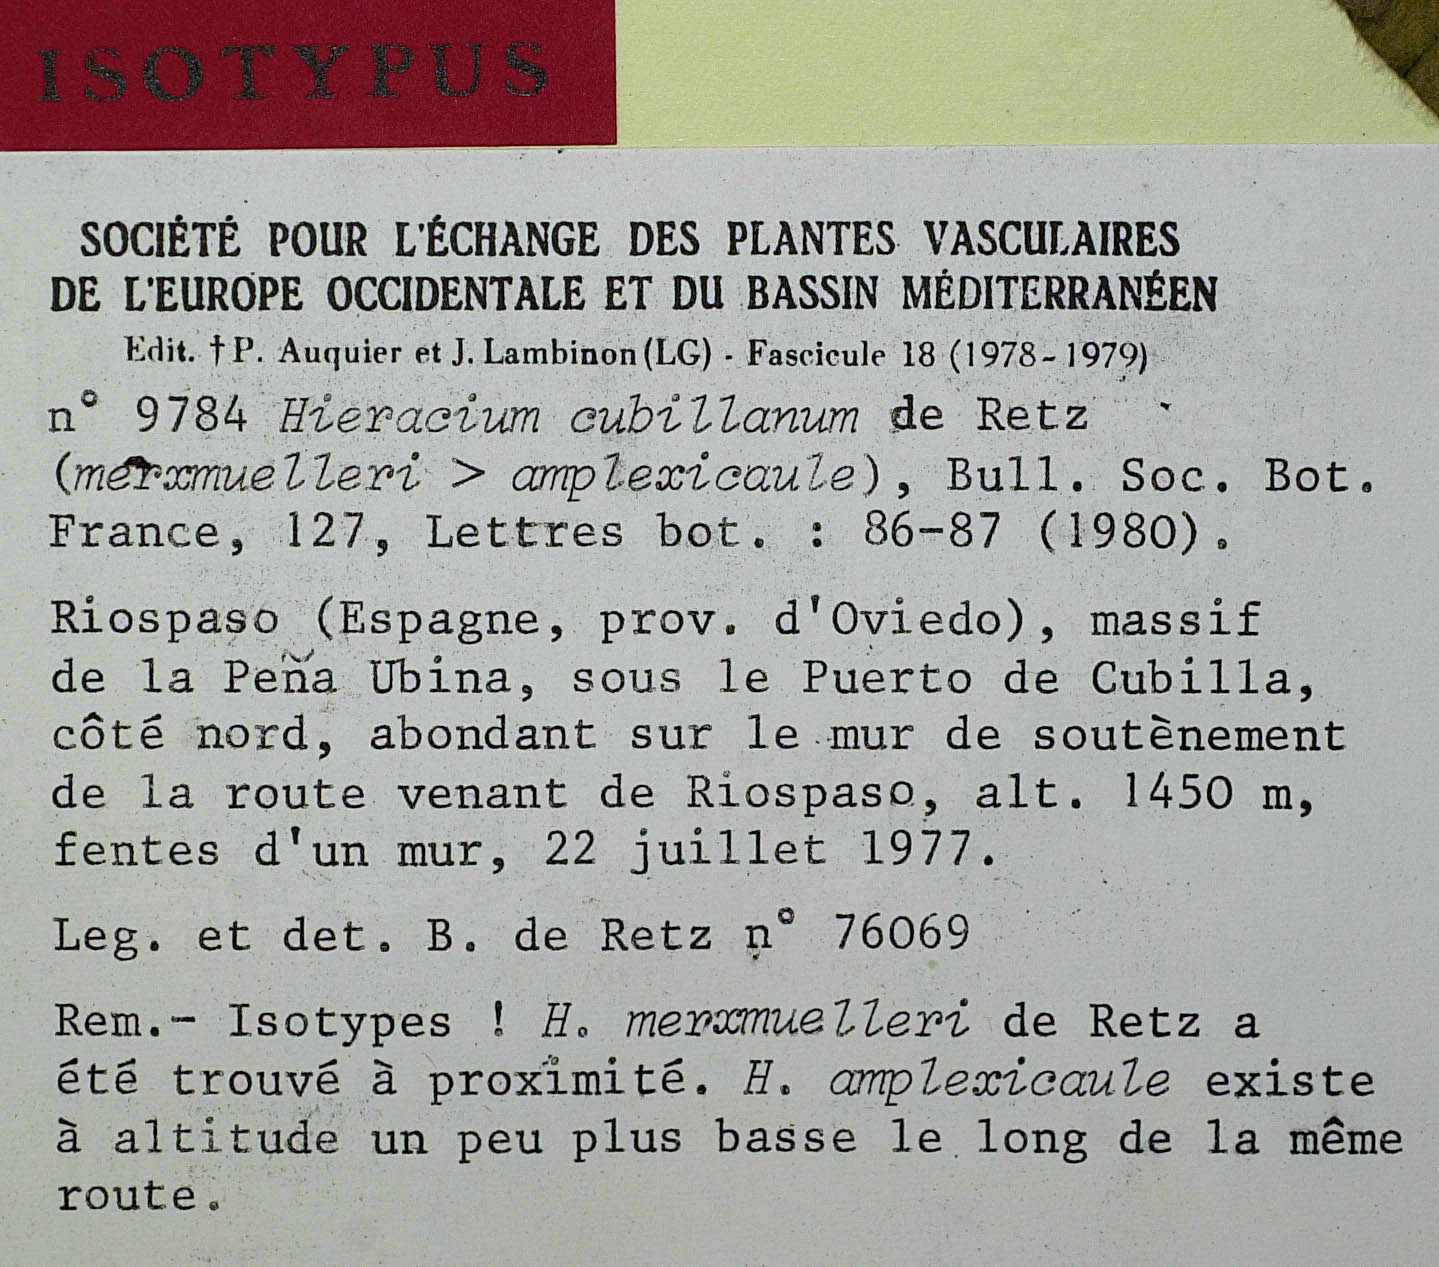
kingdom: Plantae
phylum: Tracheophyta
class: Magnoliopsida
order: Asterales
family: Asteraceae
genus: Hieracium
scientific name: Hieracium cubillanum
